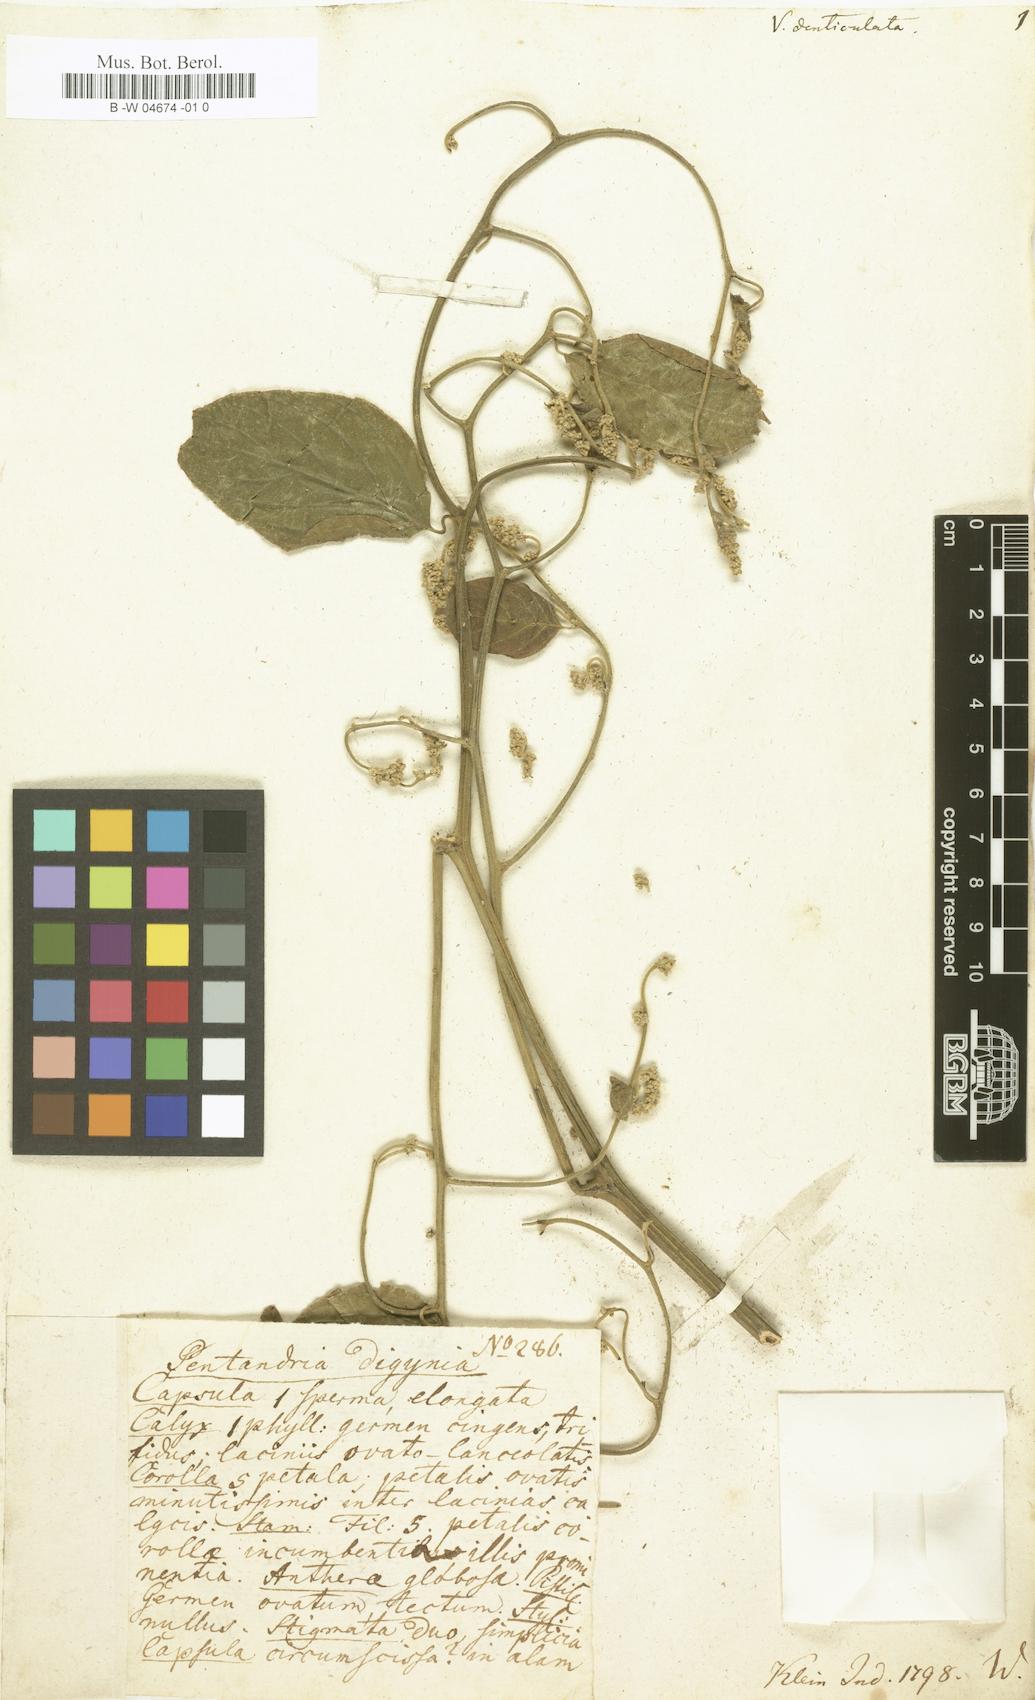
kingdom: Plantae
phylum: Tracheophyta
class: Magnoliopsida
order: Rosales
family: Rhamnaceae
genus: Ventilago
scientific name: Ventilago denticulata
